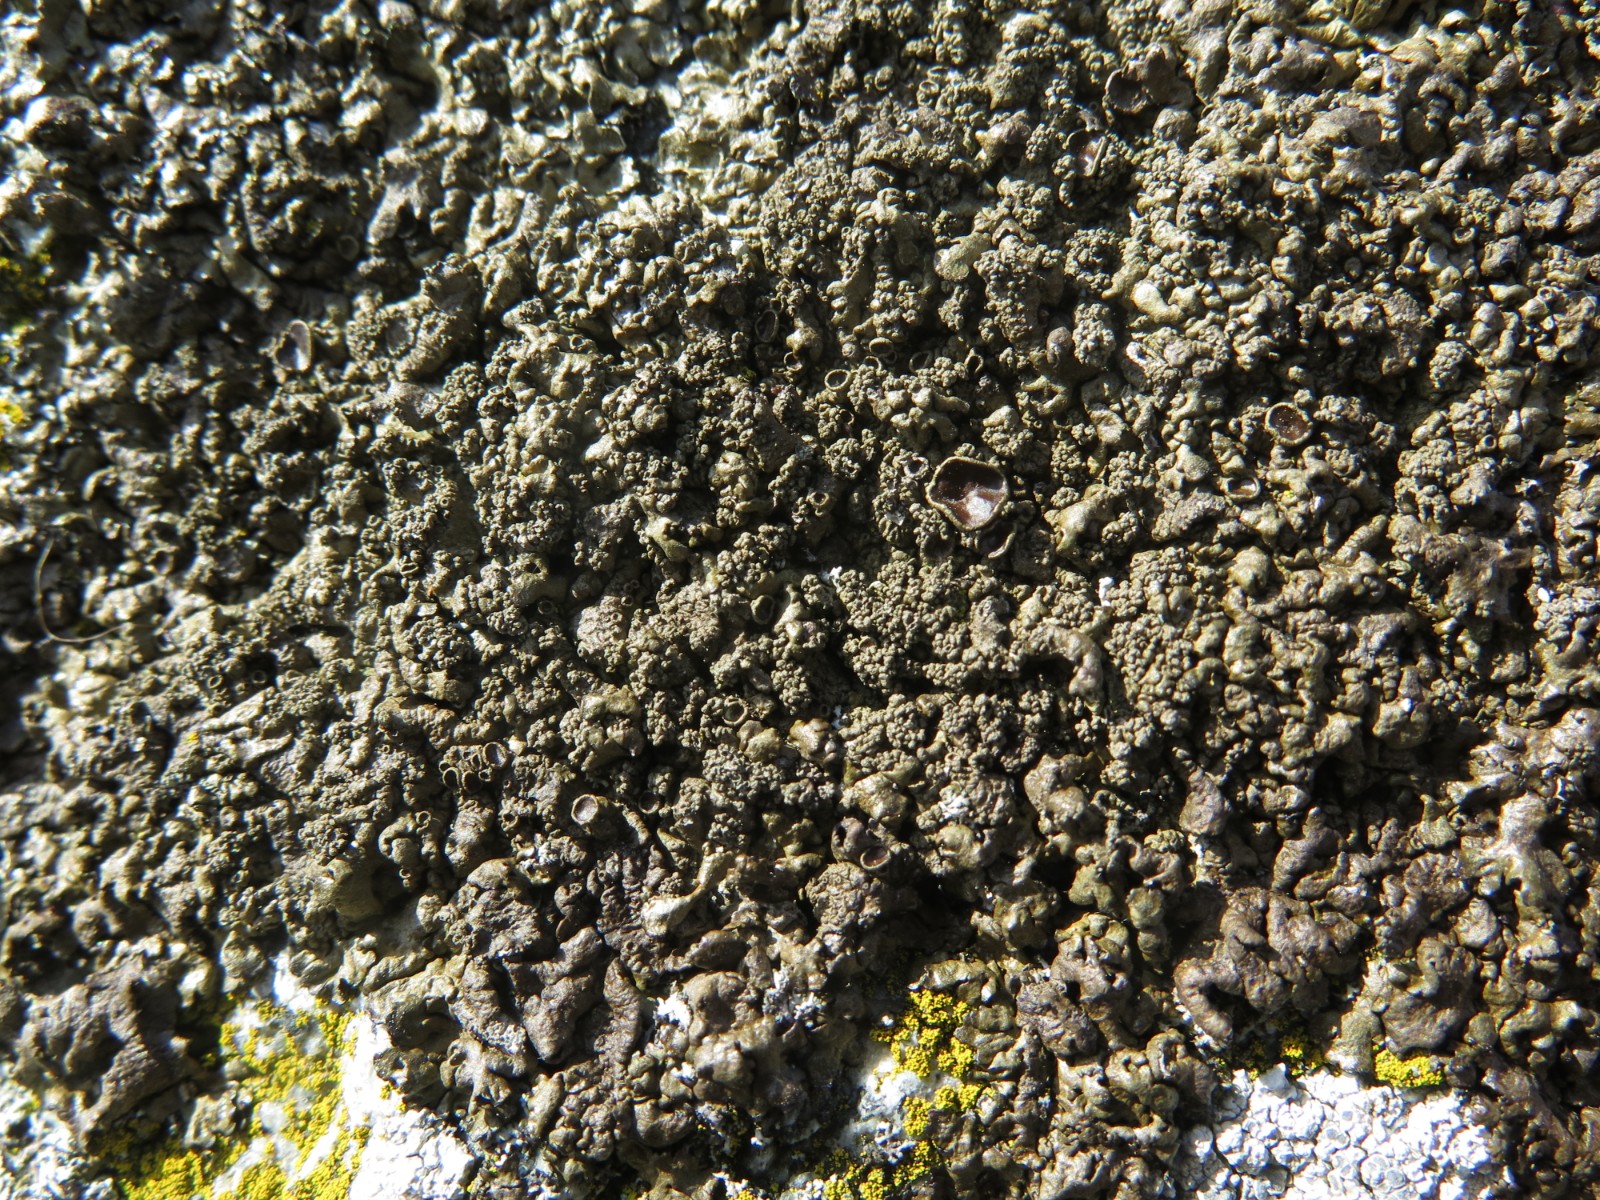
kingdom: Fungi
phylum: Ascomycota
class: Lecanoromycetes
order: Lecanorales
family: Parmeliaceae
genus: Xanthoparmelia
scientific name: Xanthoparmelia verruculifera
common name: småknoppet skållav
